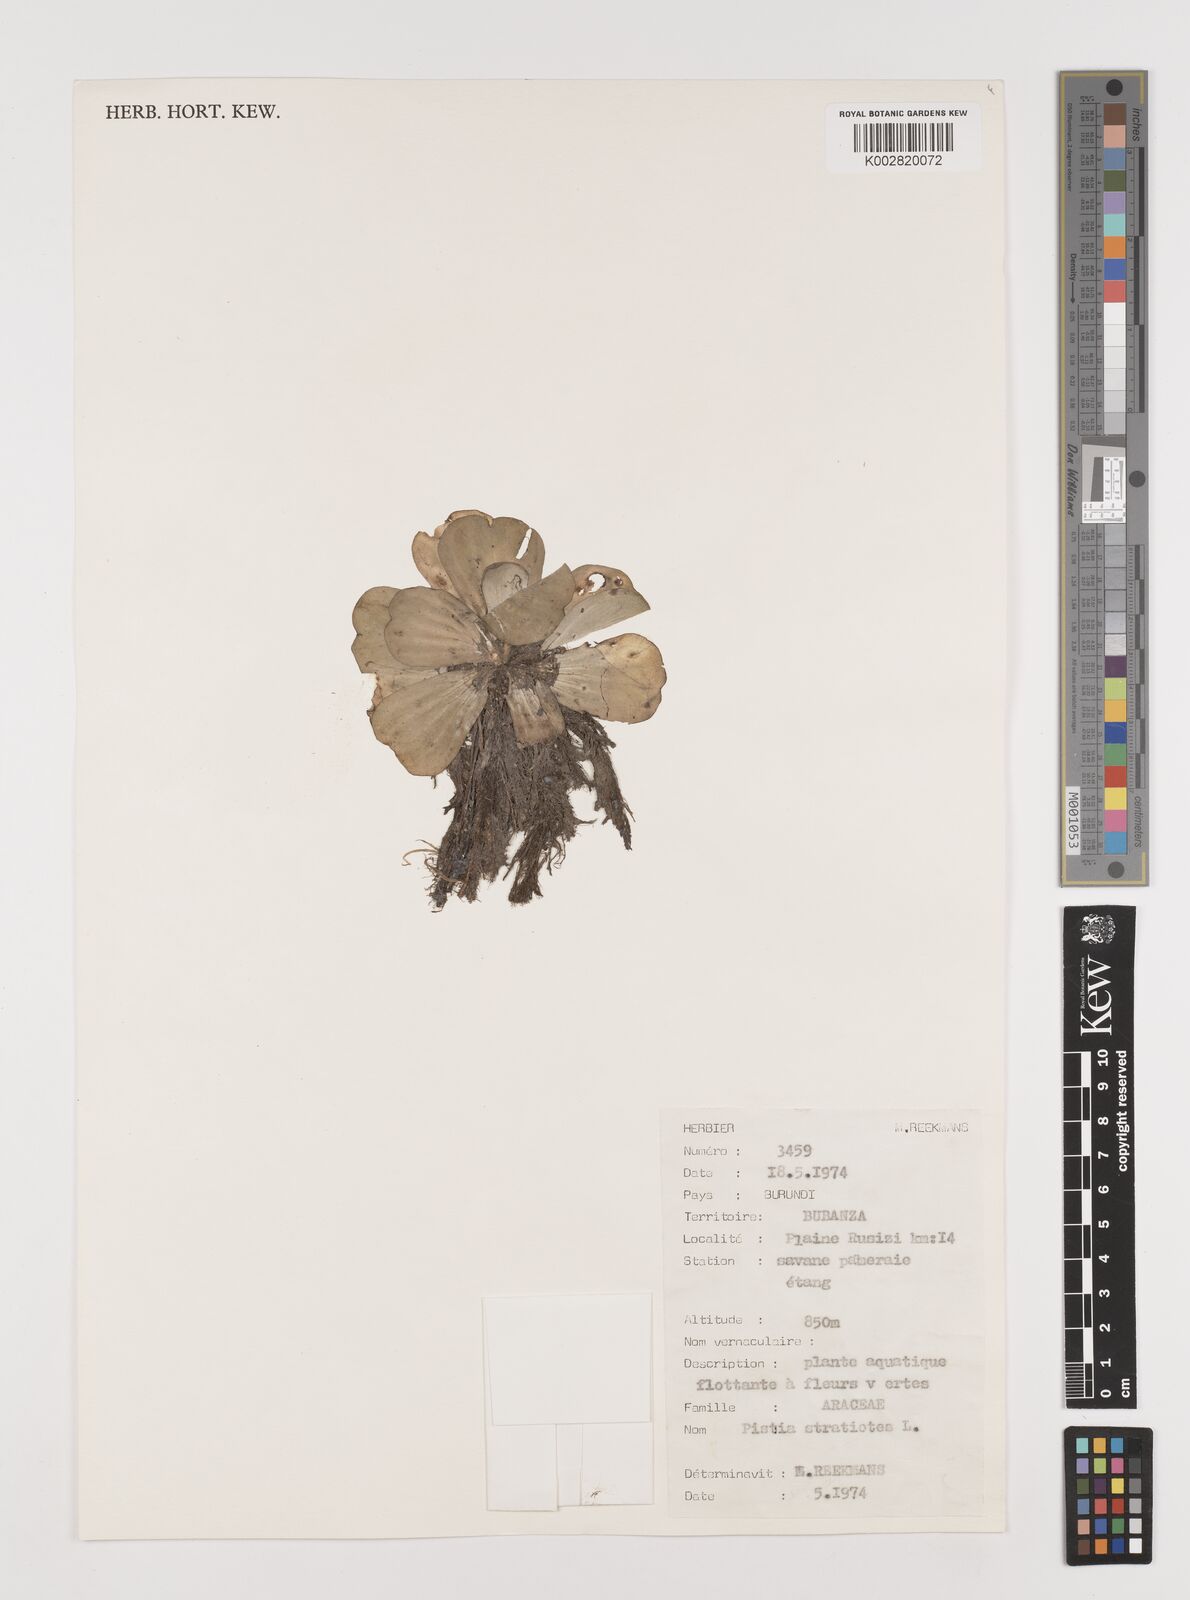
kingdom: Plantae
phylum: Tracheophyta
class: Liliopsida
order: Alismatales
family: Araceae
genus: Pistia
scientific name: Pistia stratiotes
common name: Water lettuce
